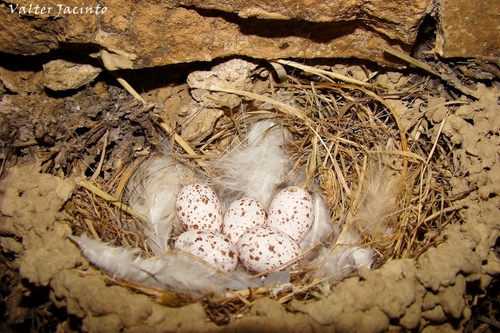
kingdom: Animalia
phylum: Chordata
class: Aves
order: Passeriformes
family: Hirundinidae
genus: Hirundo
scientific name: Hirundo rustica
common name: Barn swallow
